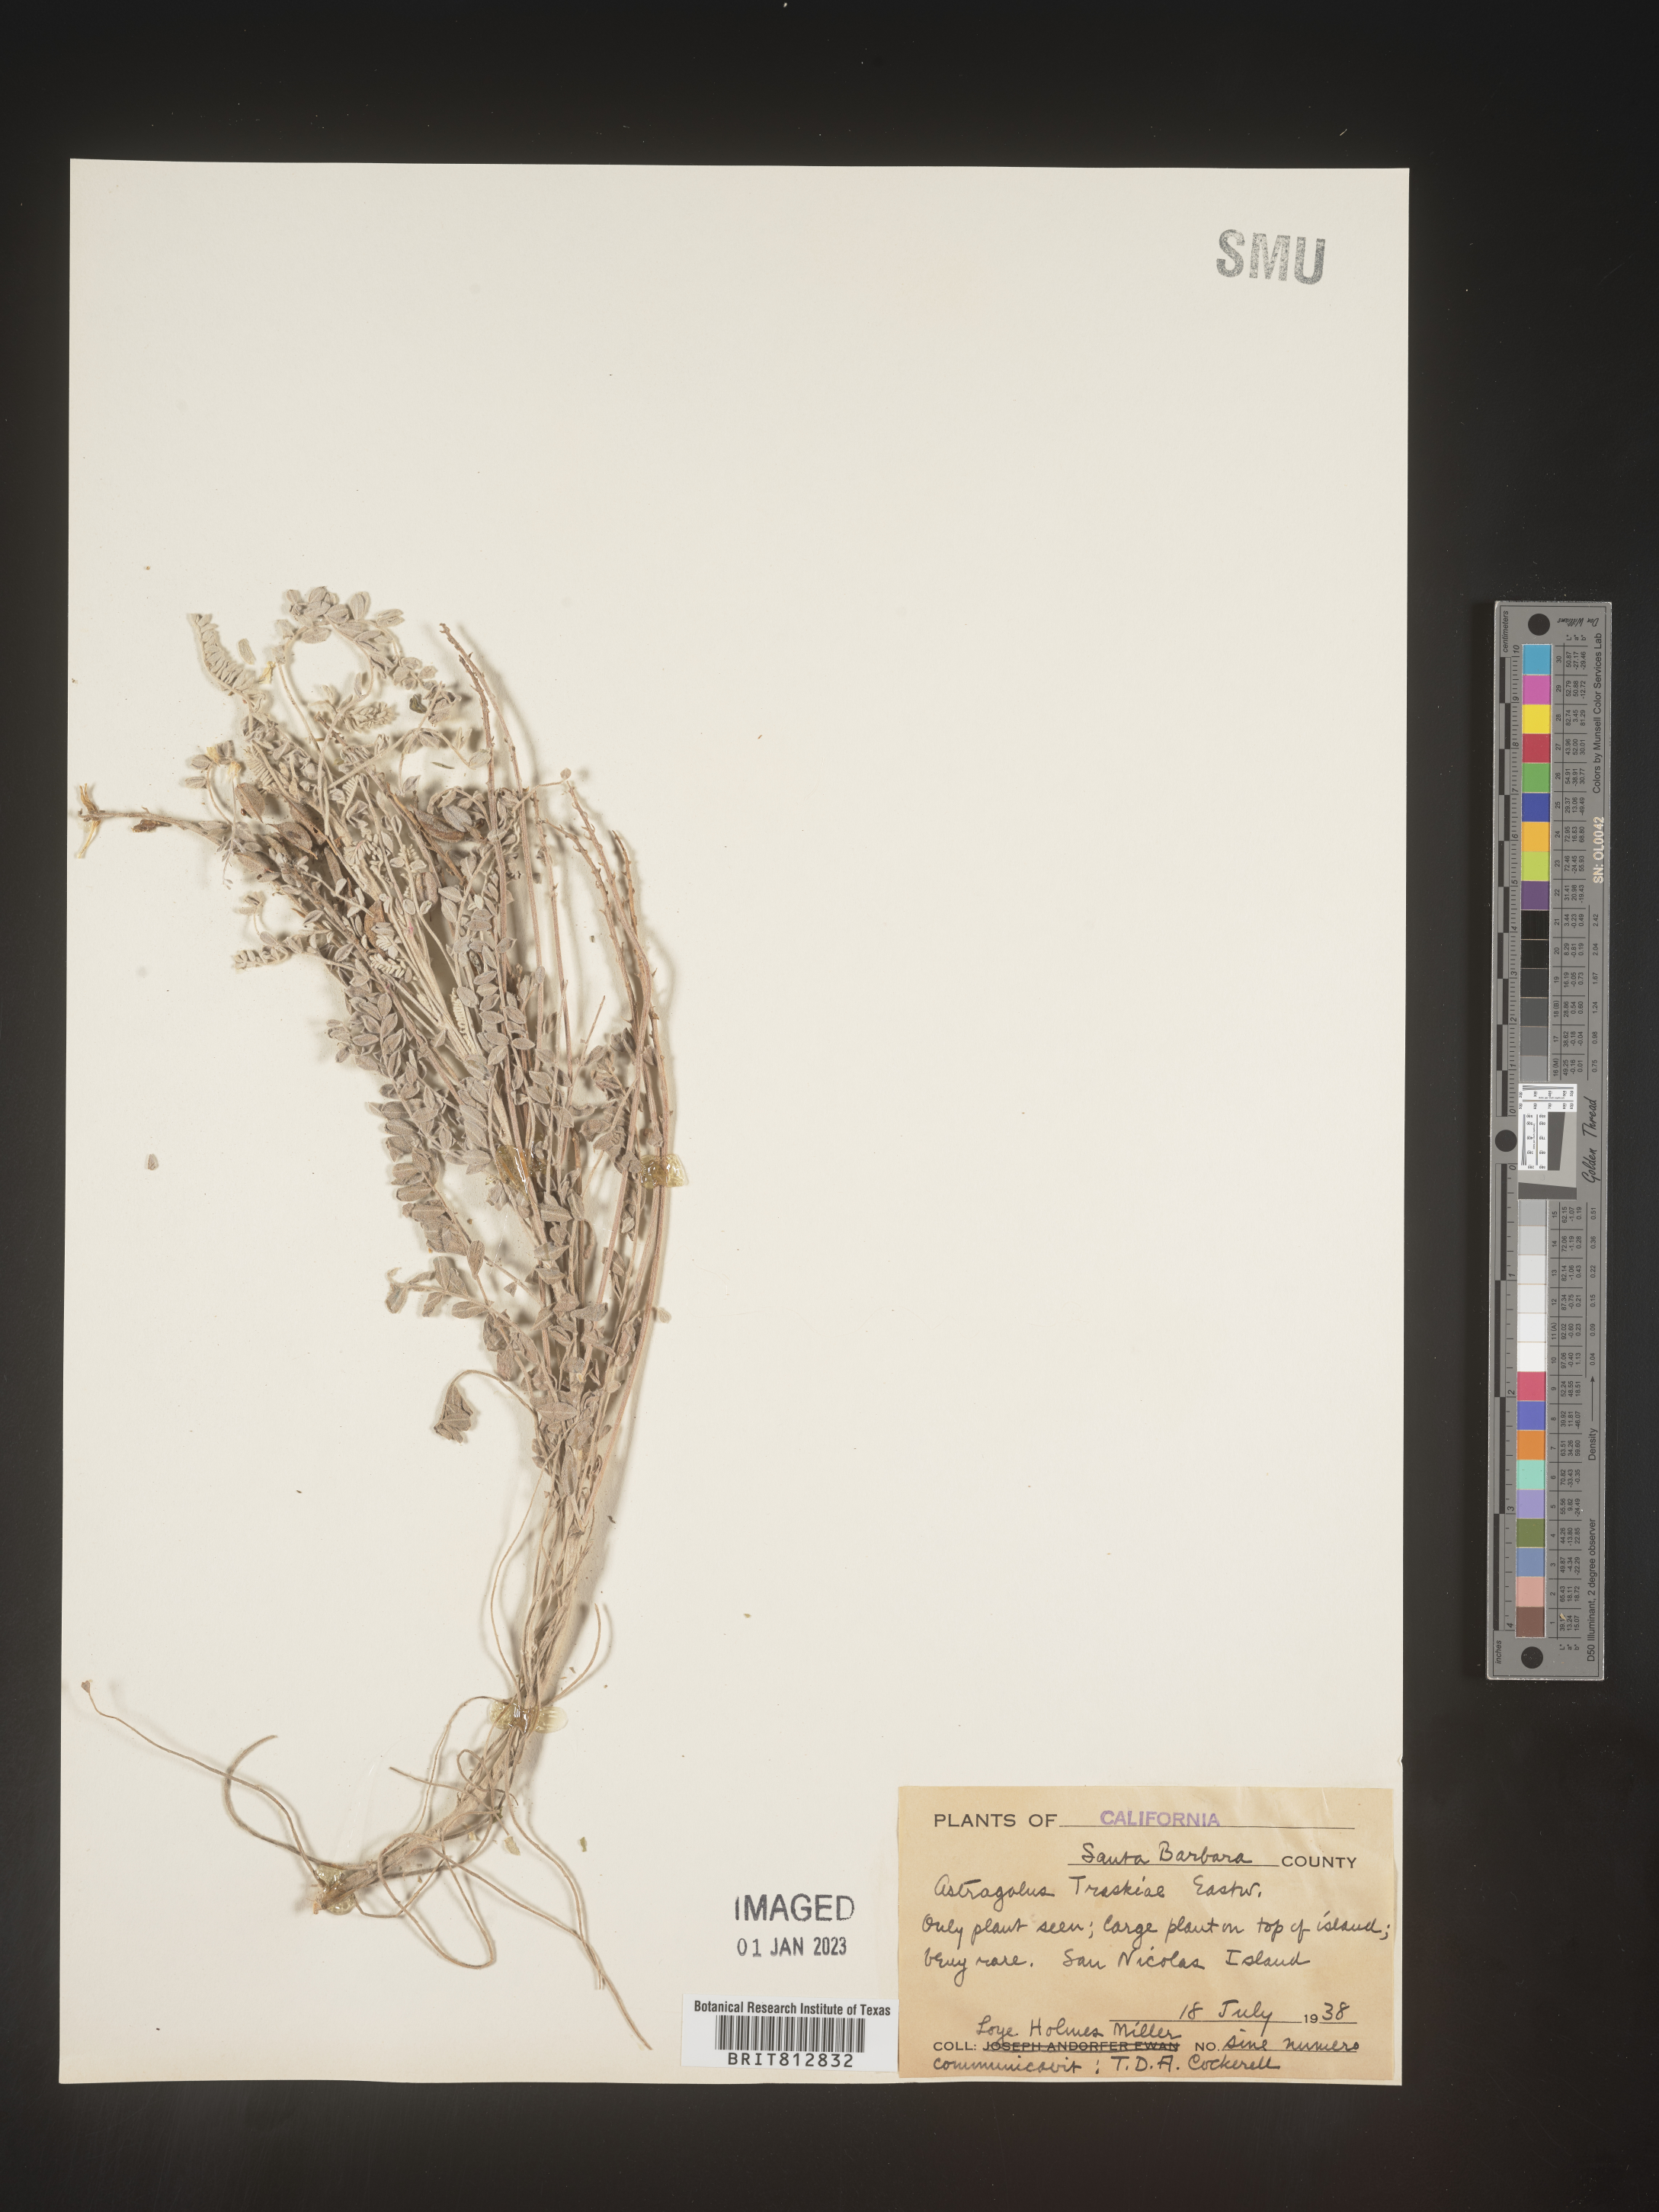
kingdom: Plantae
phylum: Tracheophyta
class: Magnoliopsida
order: Fabales
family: Fabaceae
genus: Astragalus
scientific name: Astragalus
